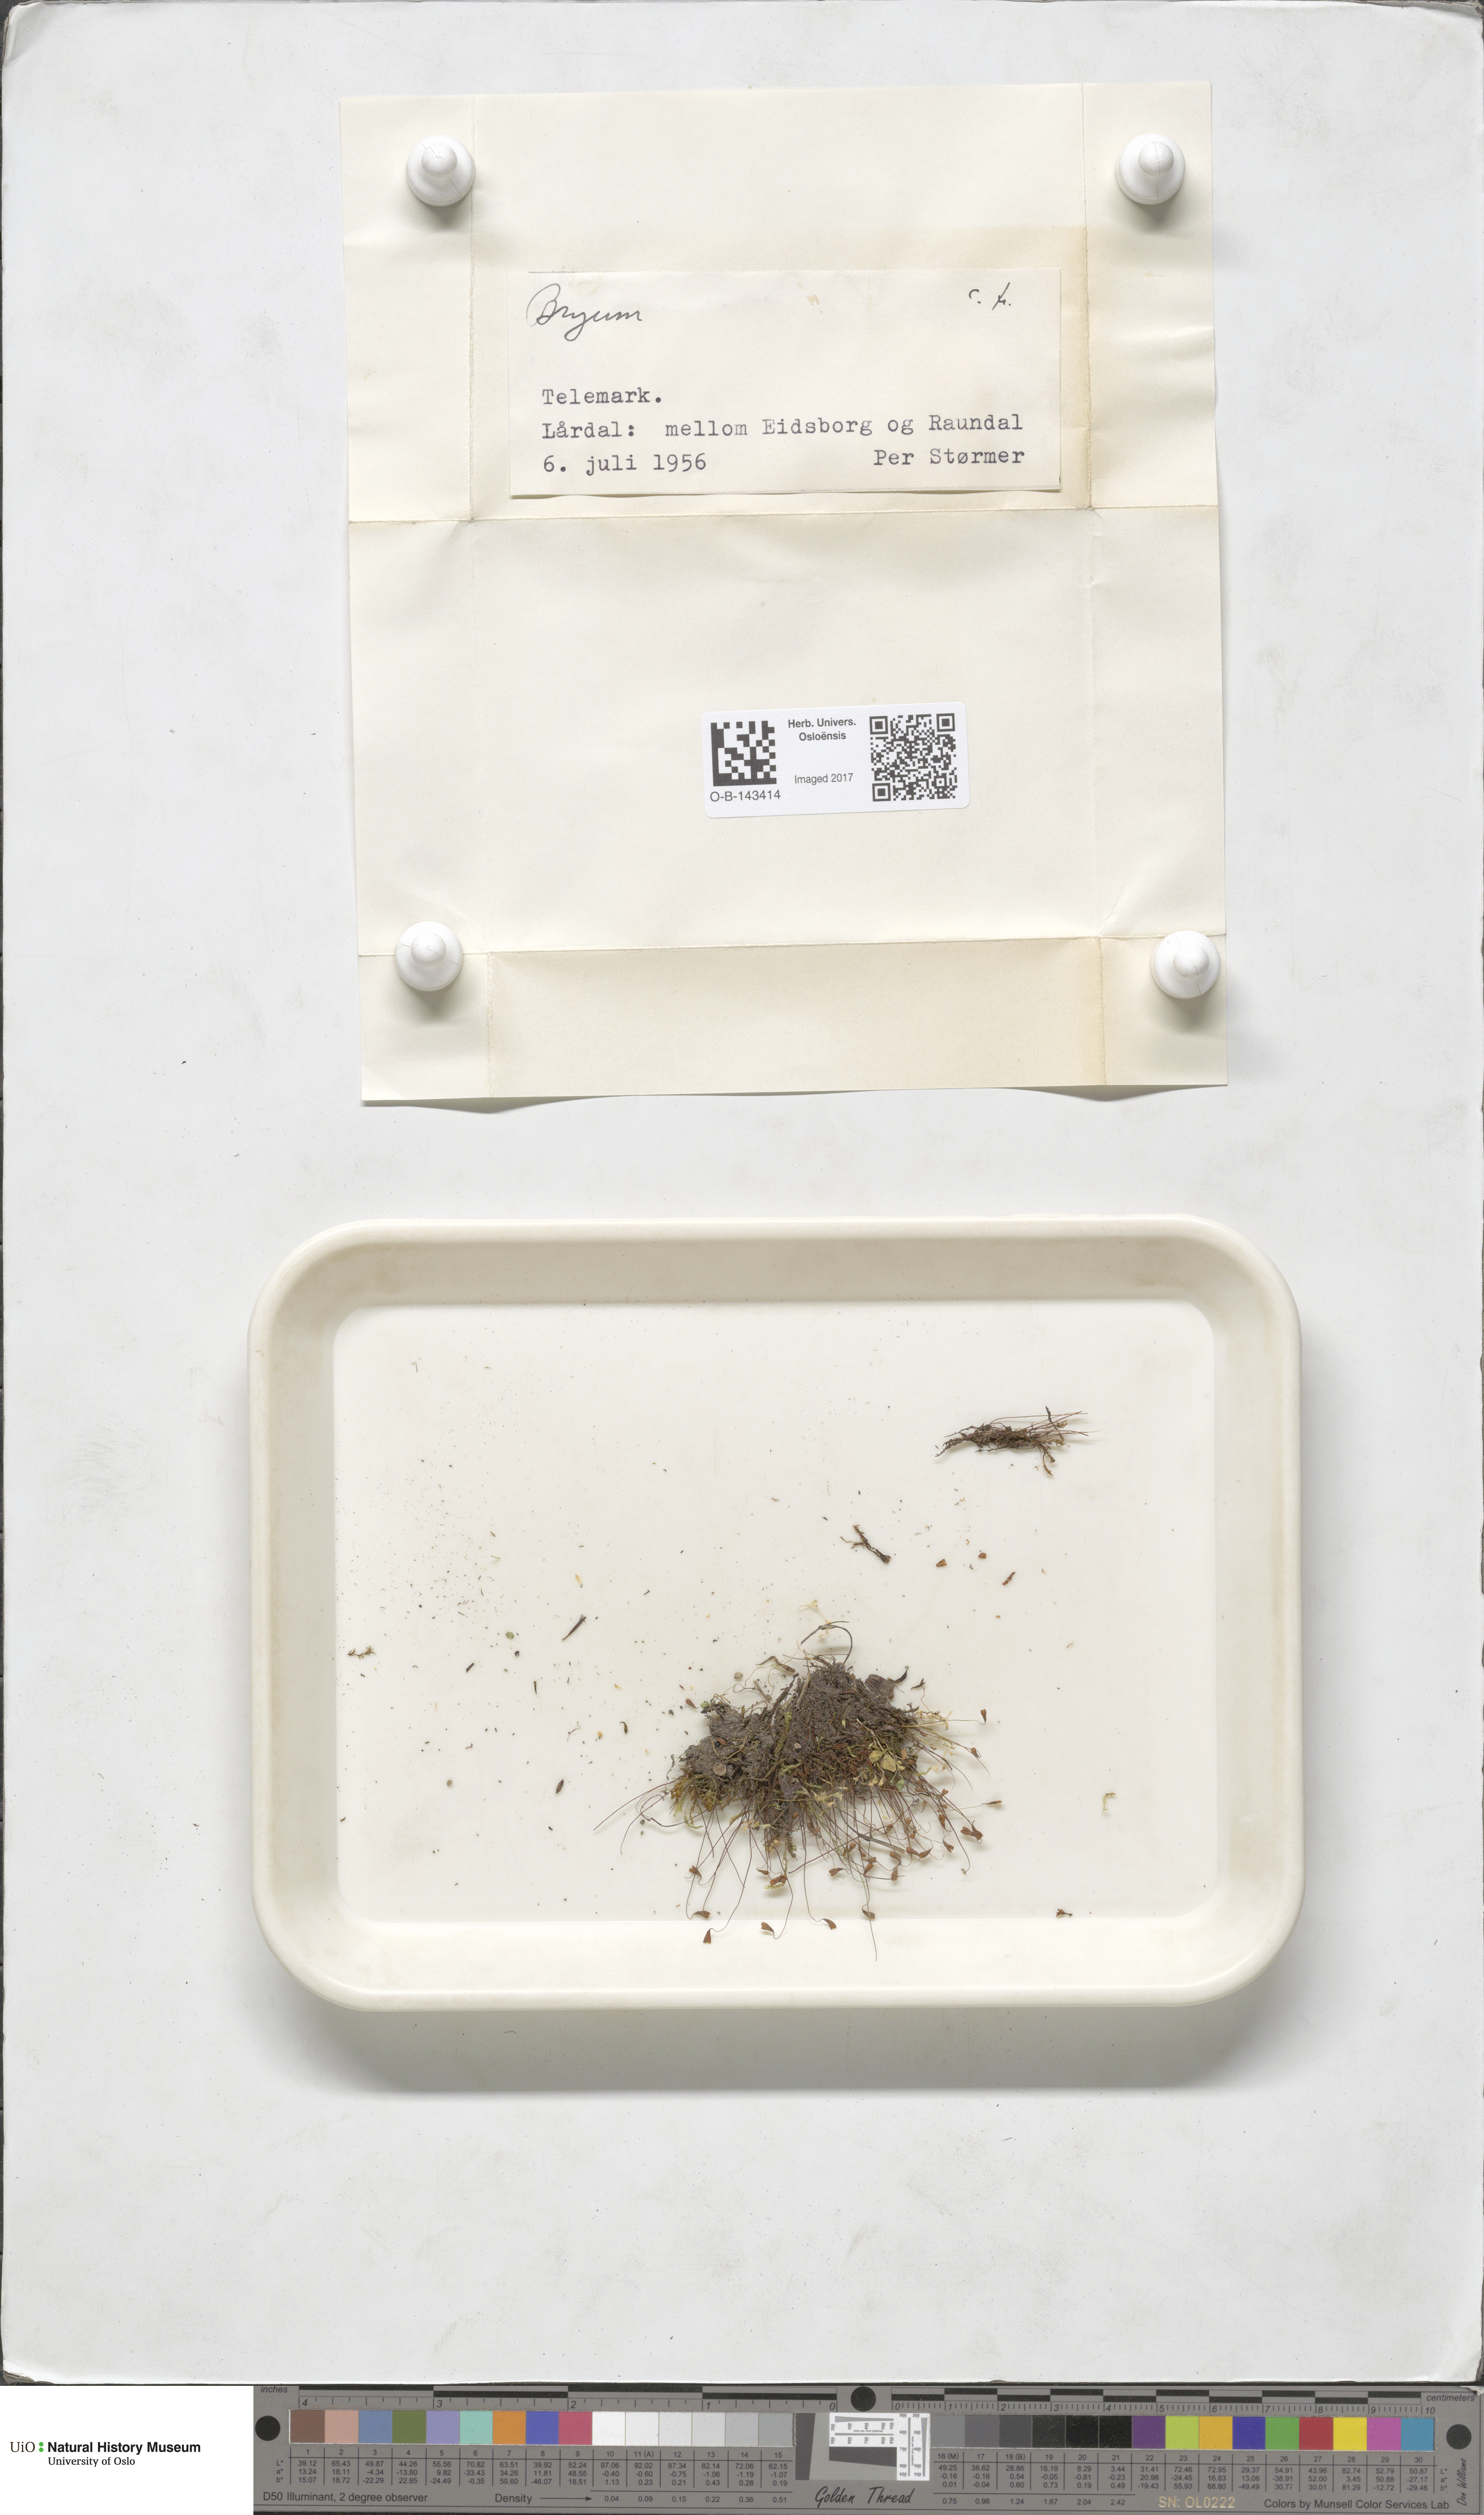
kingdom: Plantae
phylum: Bryophyta
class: Bryopsida
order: Bryales
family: Bryaceae
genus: Bryum
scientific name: Bryum
